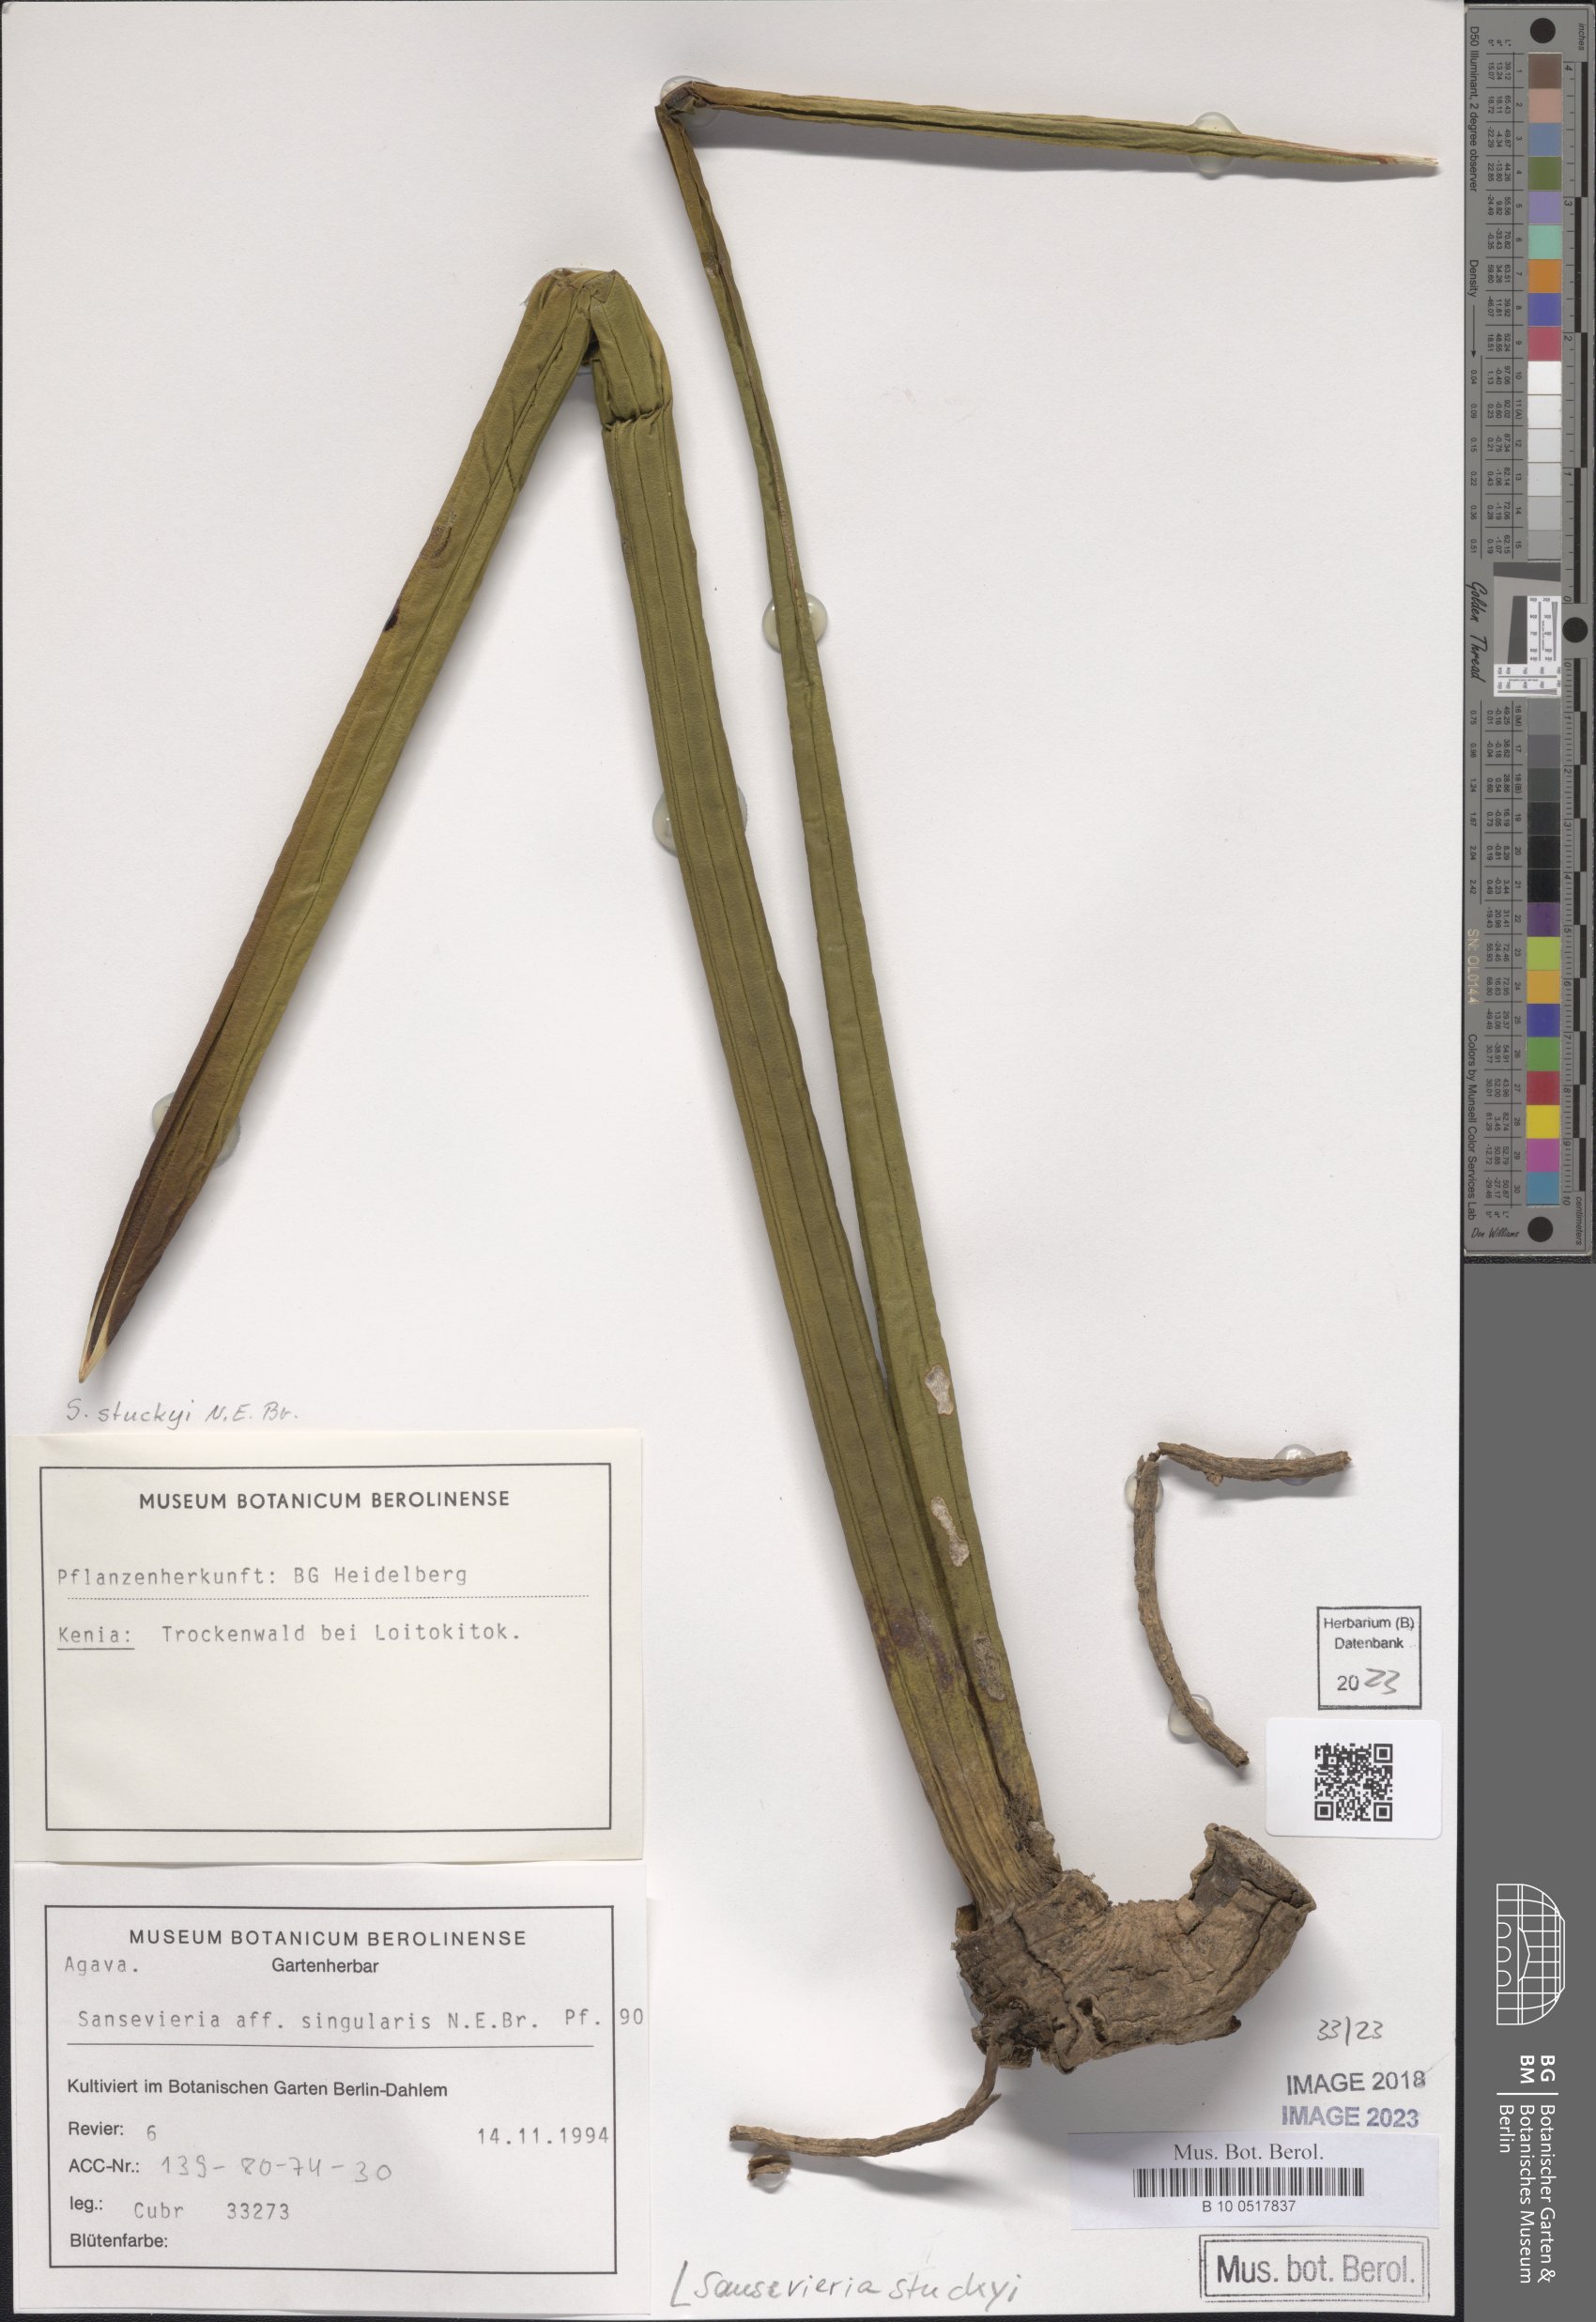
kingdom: Plantae
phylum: Tracheophyta
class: Liliopsida
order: Asparagales
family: Asparagaceae
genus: Dracaena
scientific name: Dracaena stuckyi
